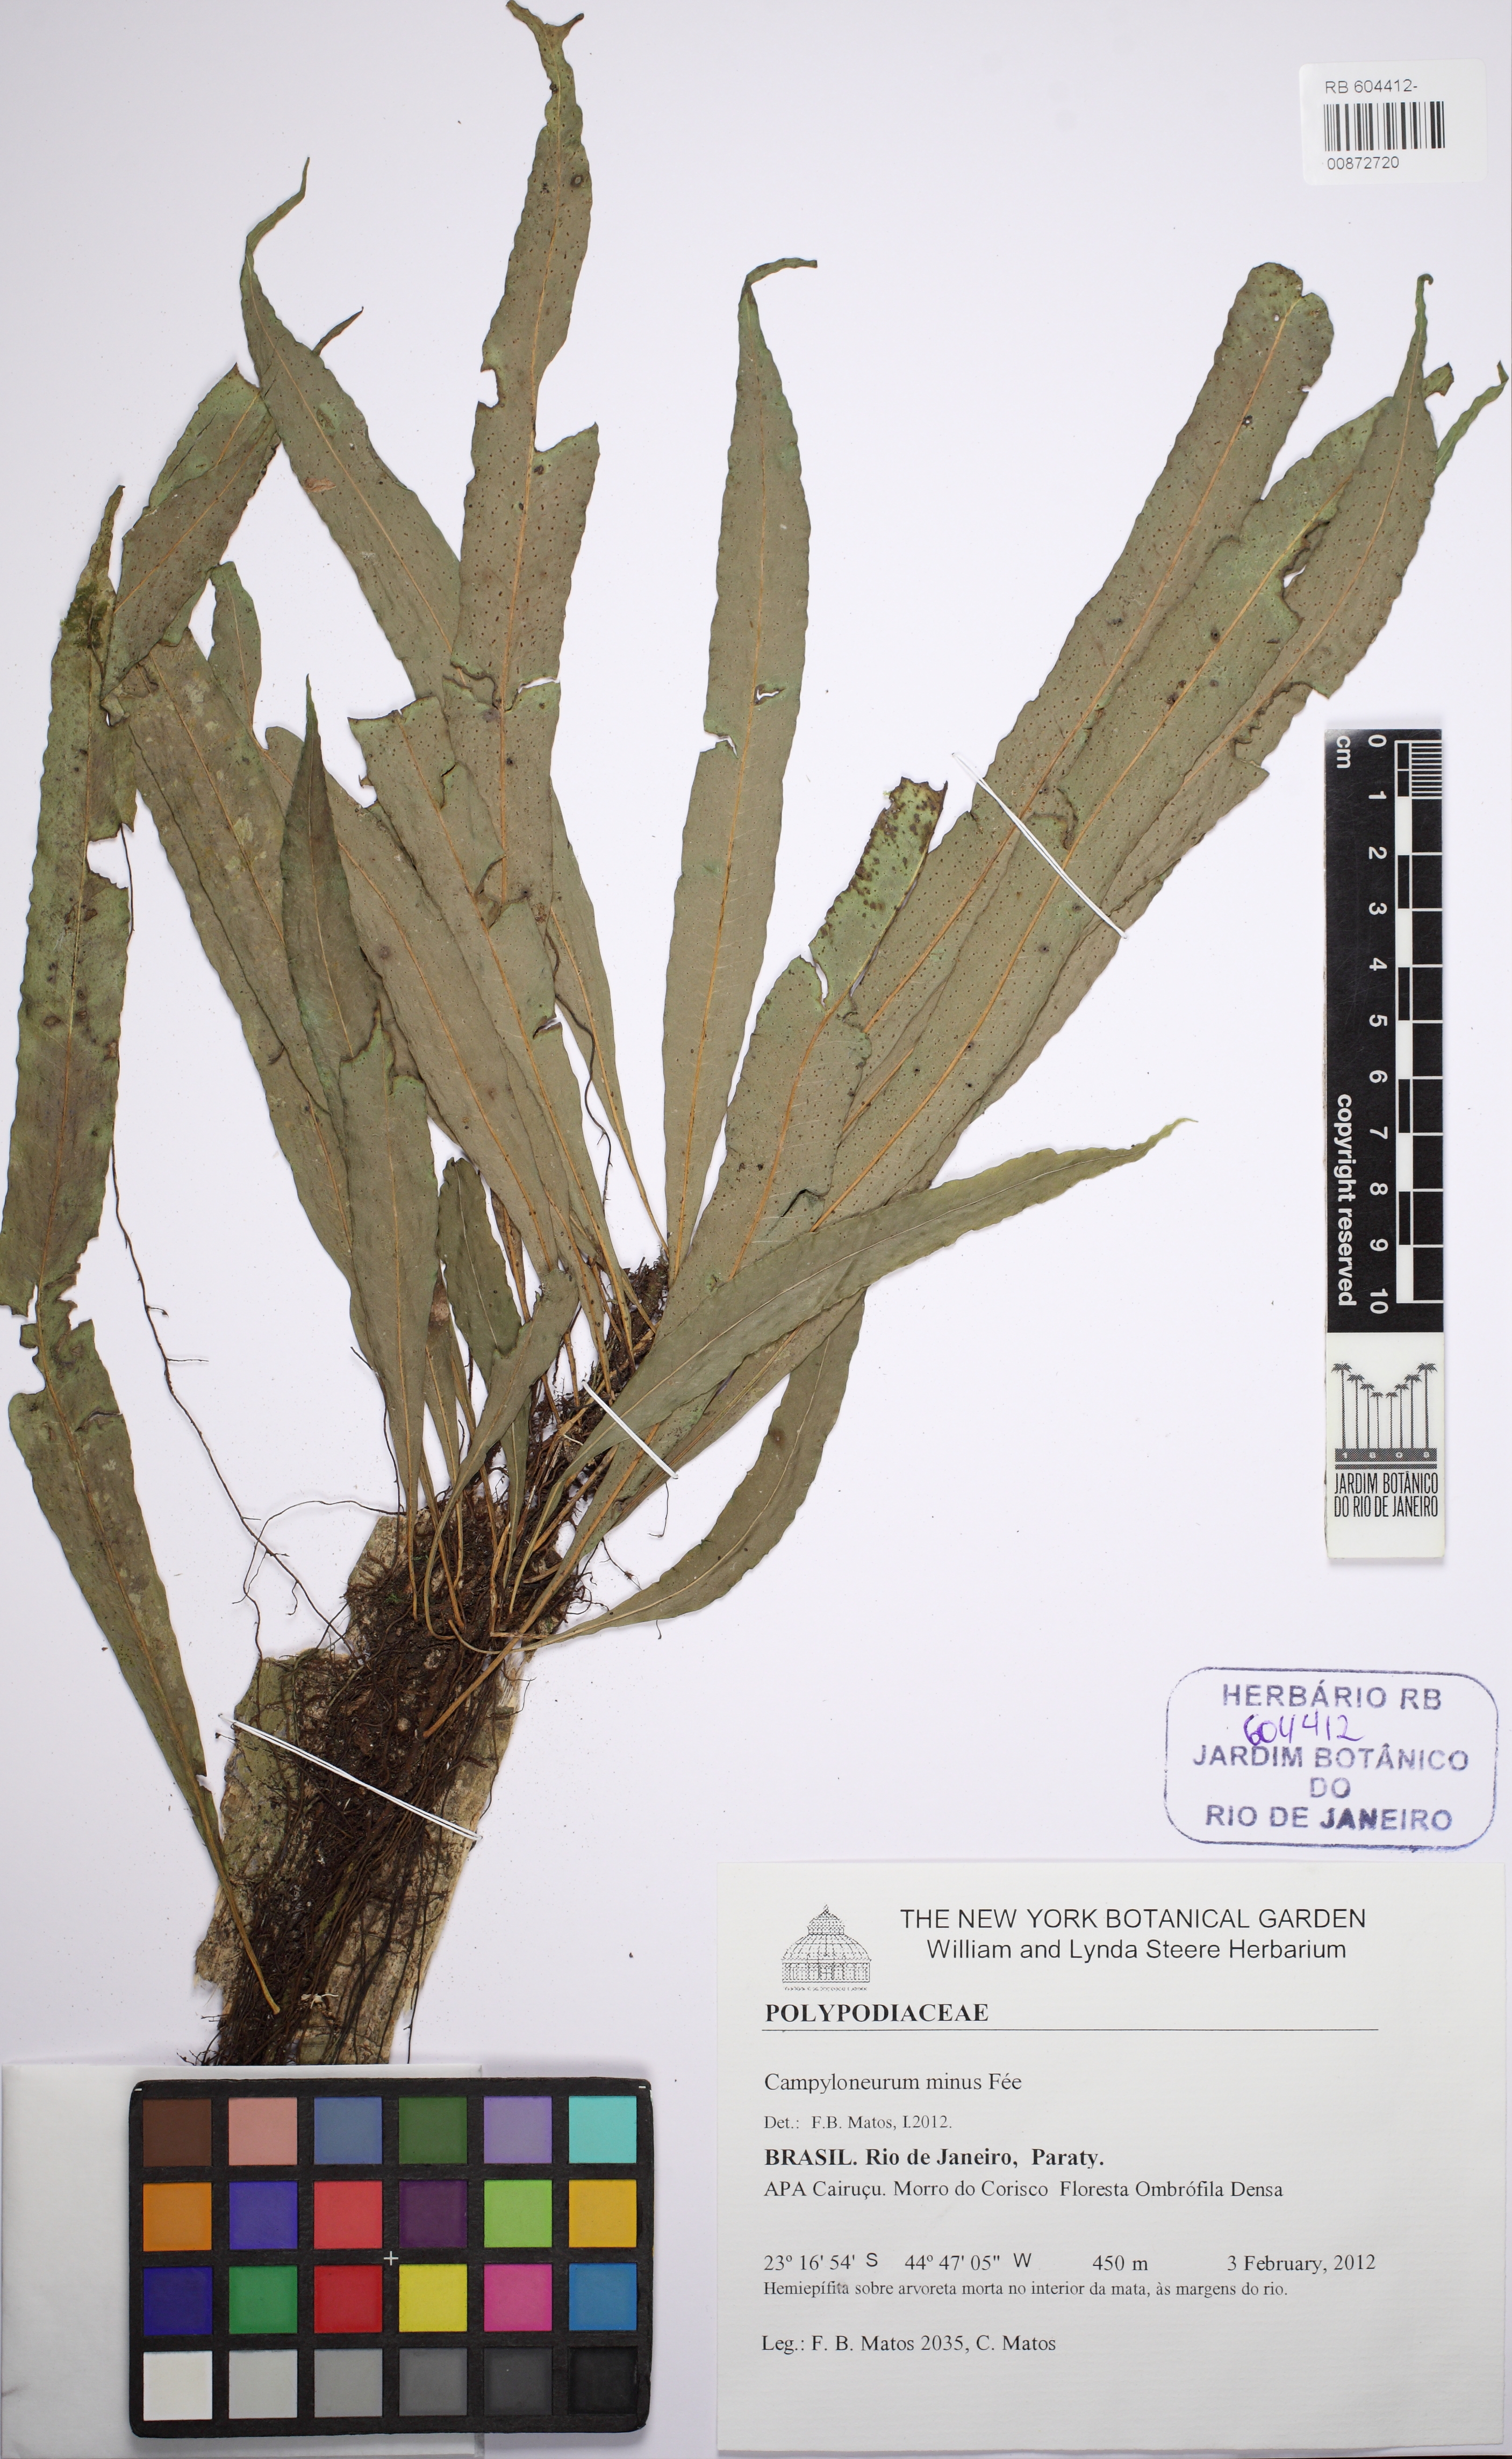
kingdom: Plantae
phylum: Tracheophyta
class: Polypodiopsida
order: Polypodiales
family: Polypodiaceae
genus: Campyloneurum
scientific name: Campyloneurum aphanophlebium
